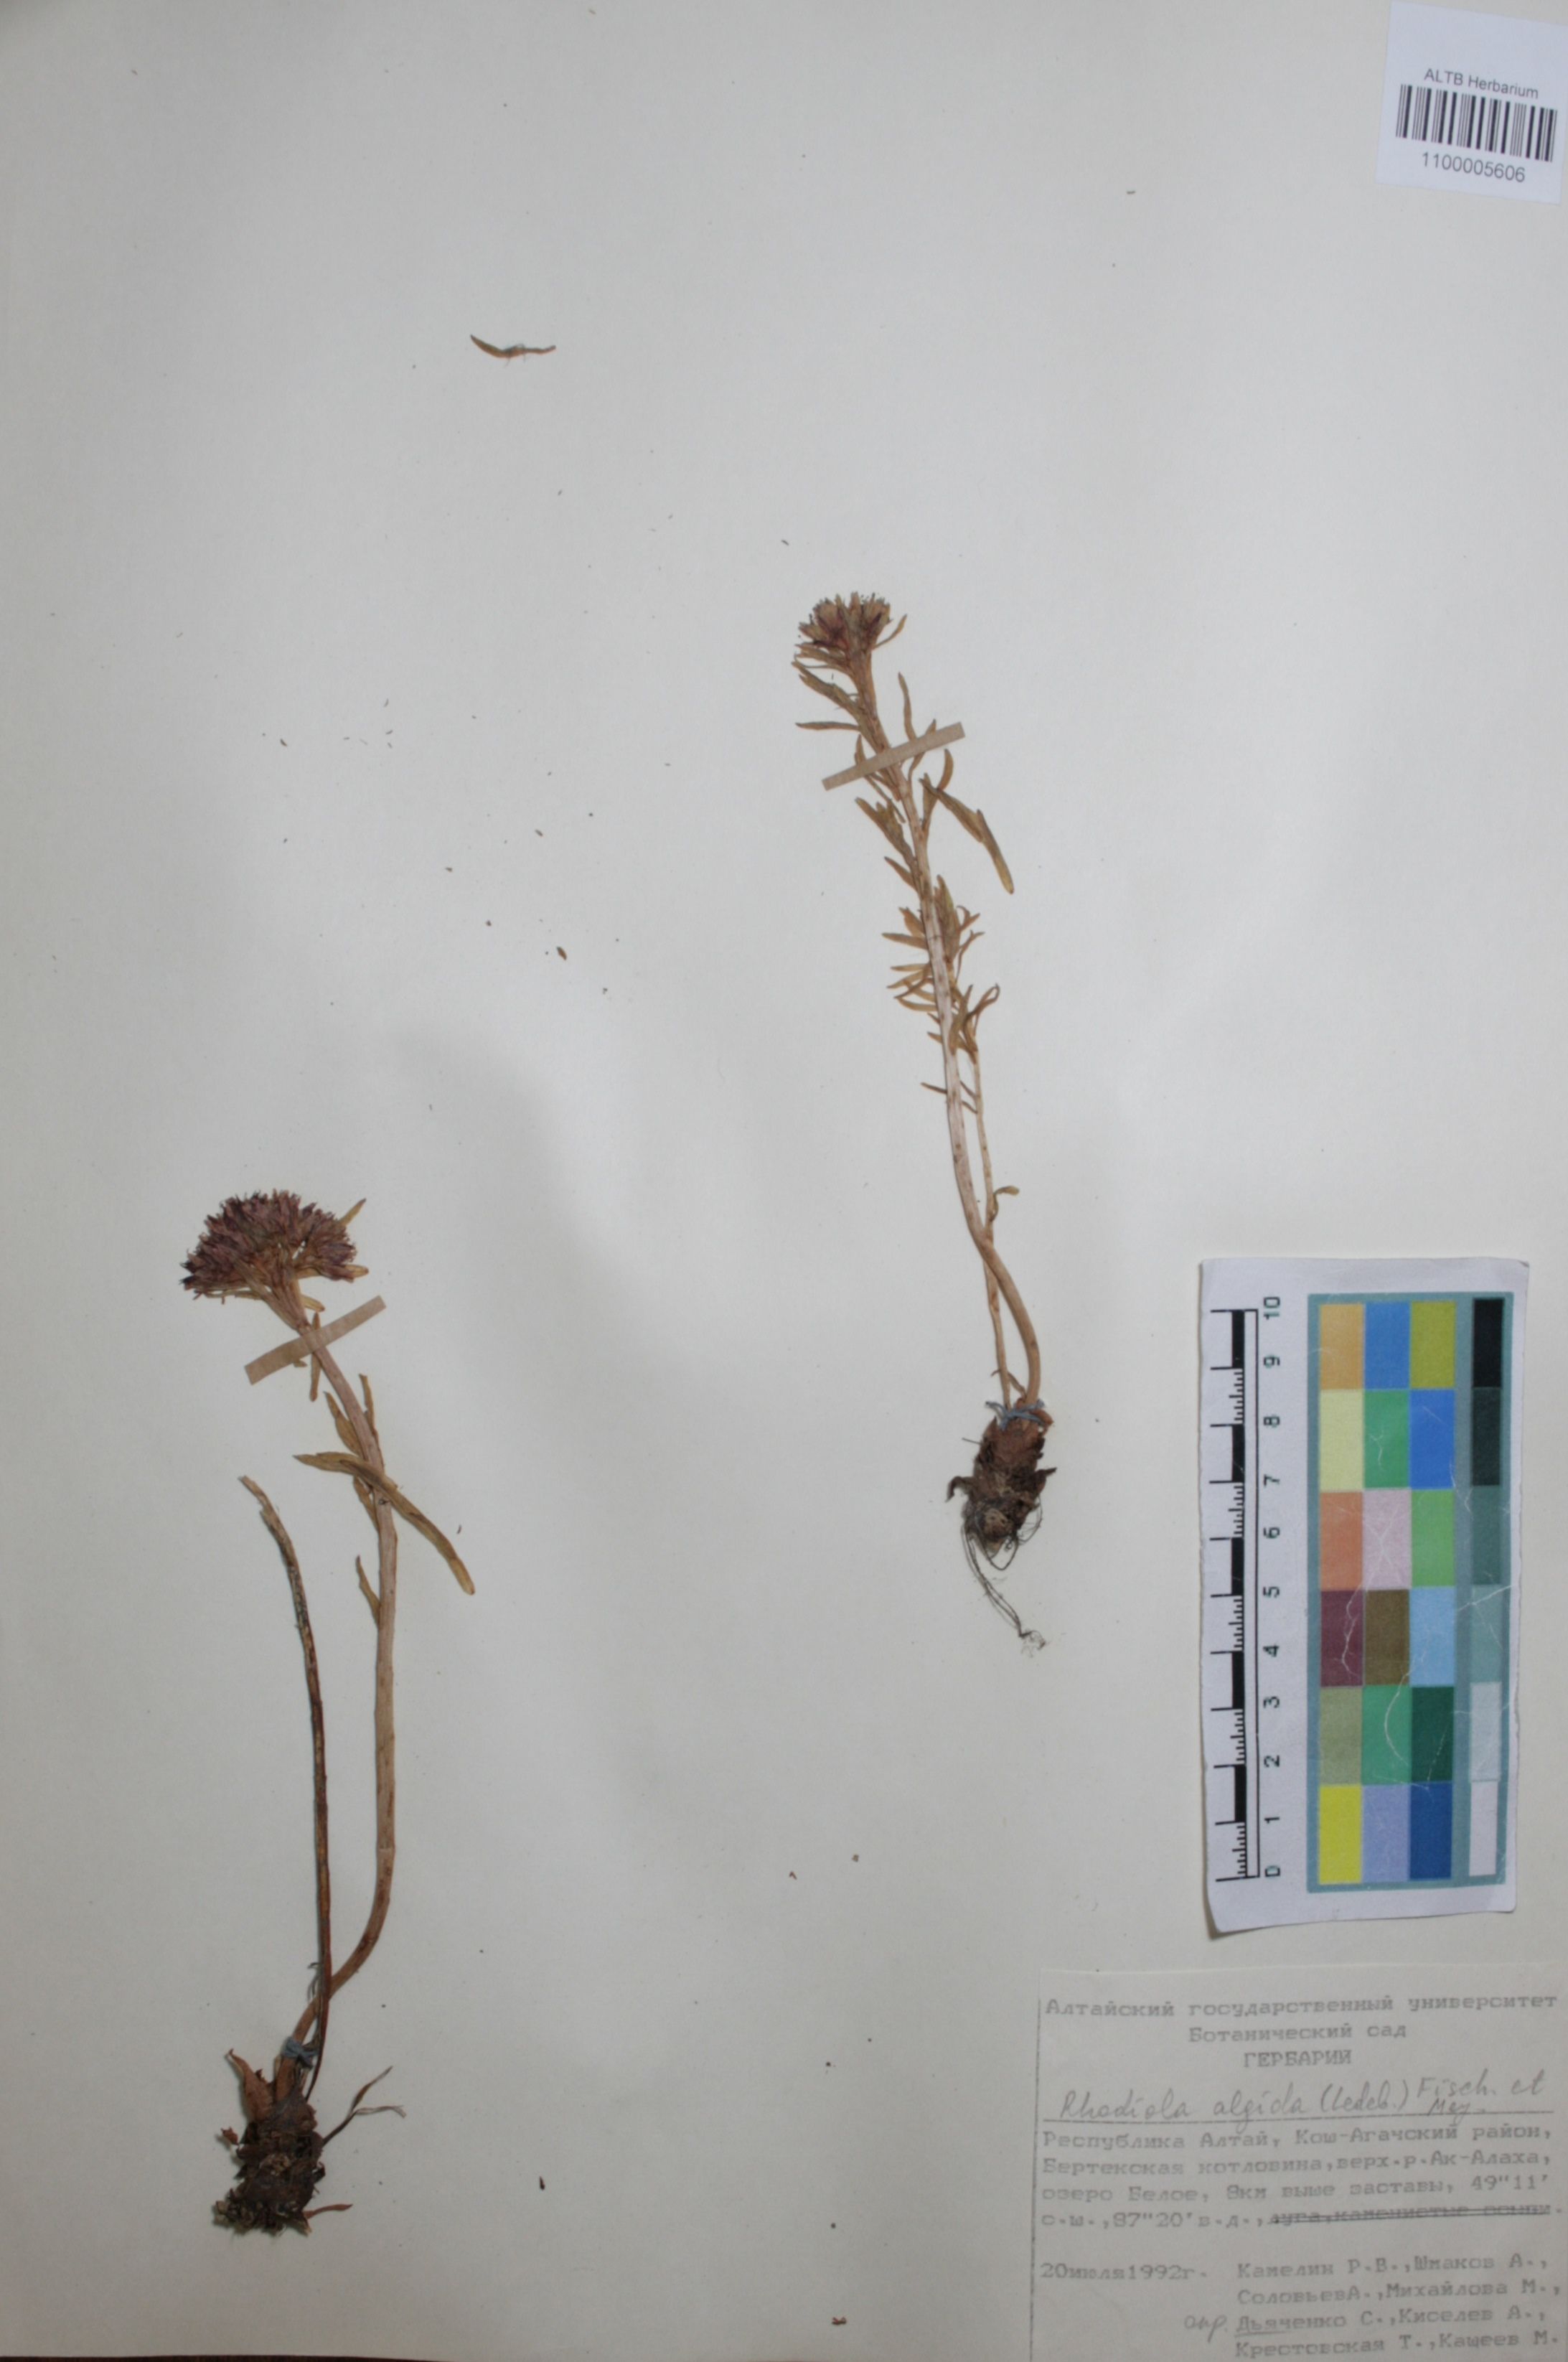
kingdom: Plantae
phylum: Tracheophyta
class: Magnoliopsida
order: Saxifragales
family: Crassulaceae
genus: Rhodiola
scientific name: Rhodiola algida
